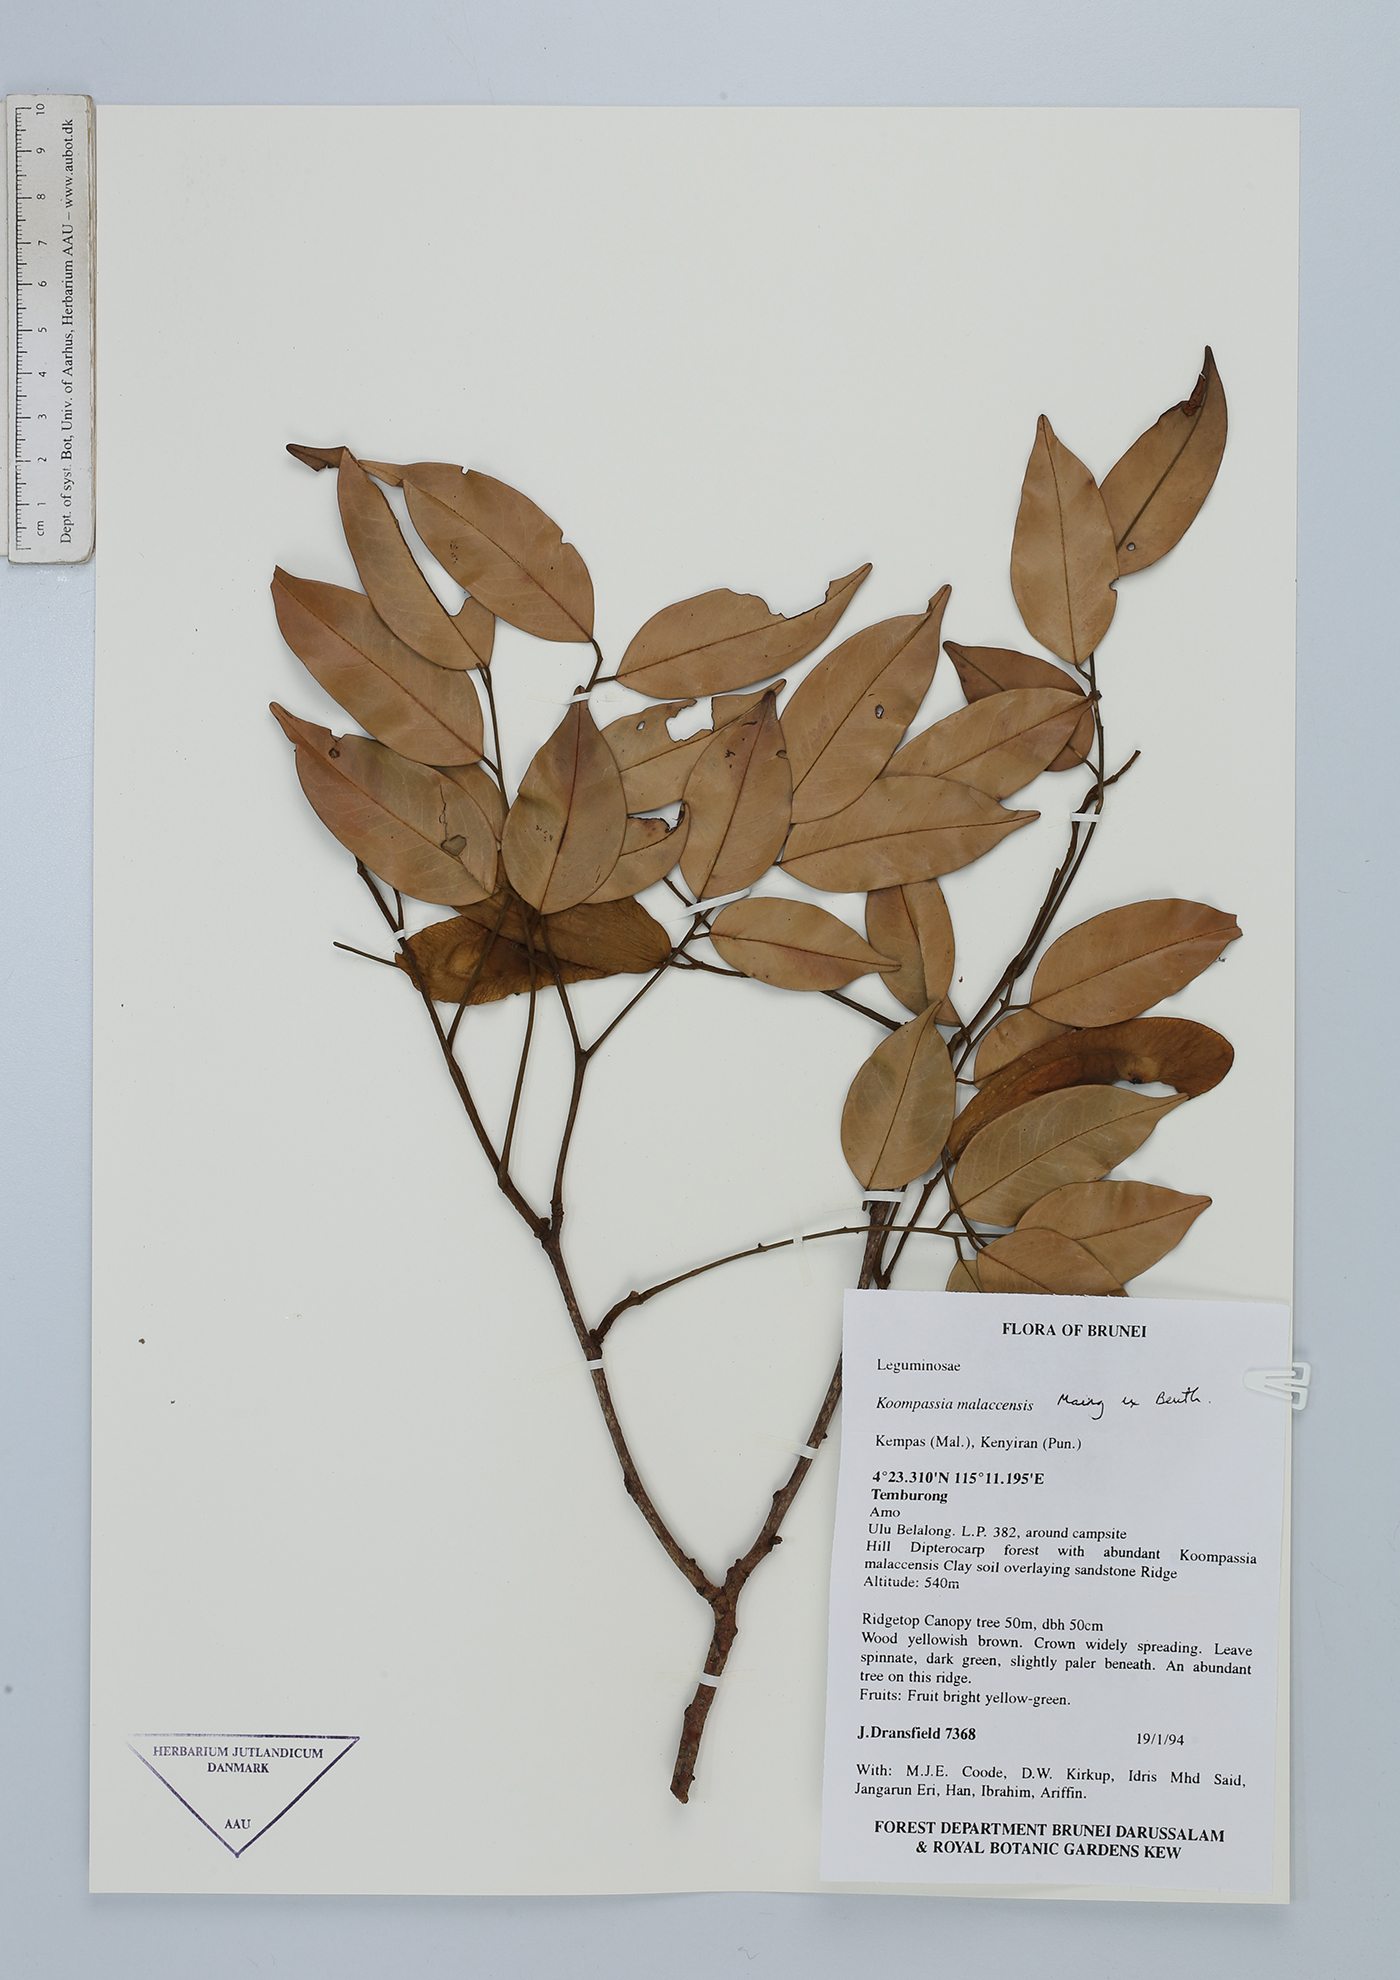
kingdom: Plantae
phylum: Tracheophyta
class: Magnoliopsida
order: Fabales
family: Fabaceae
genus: Koompassia
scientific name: Koompassia malaccensis
